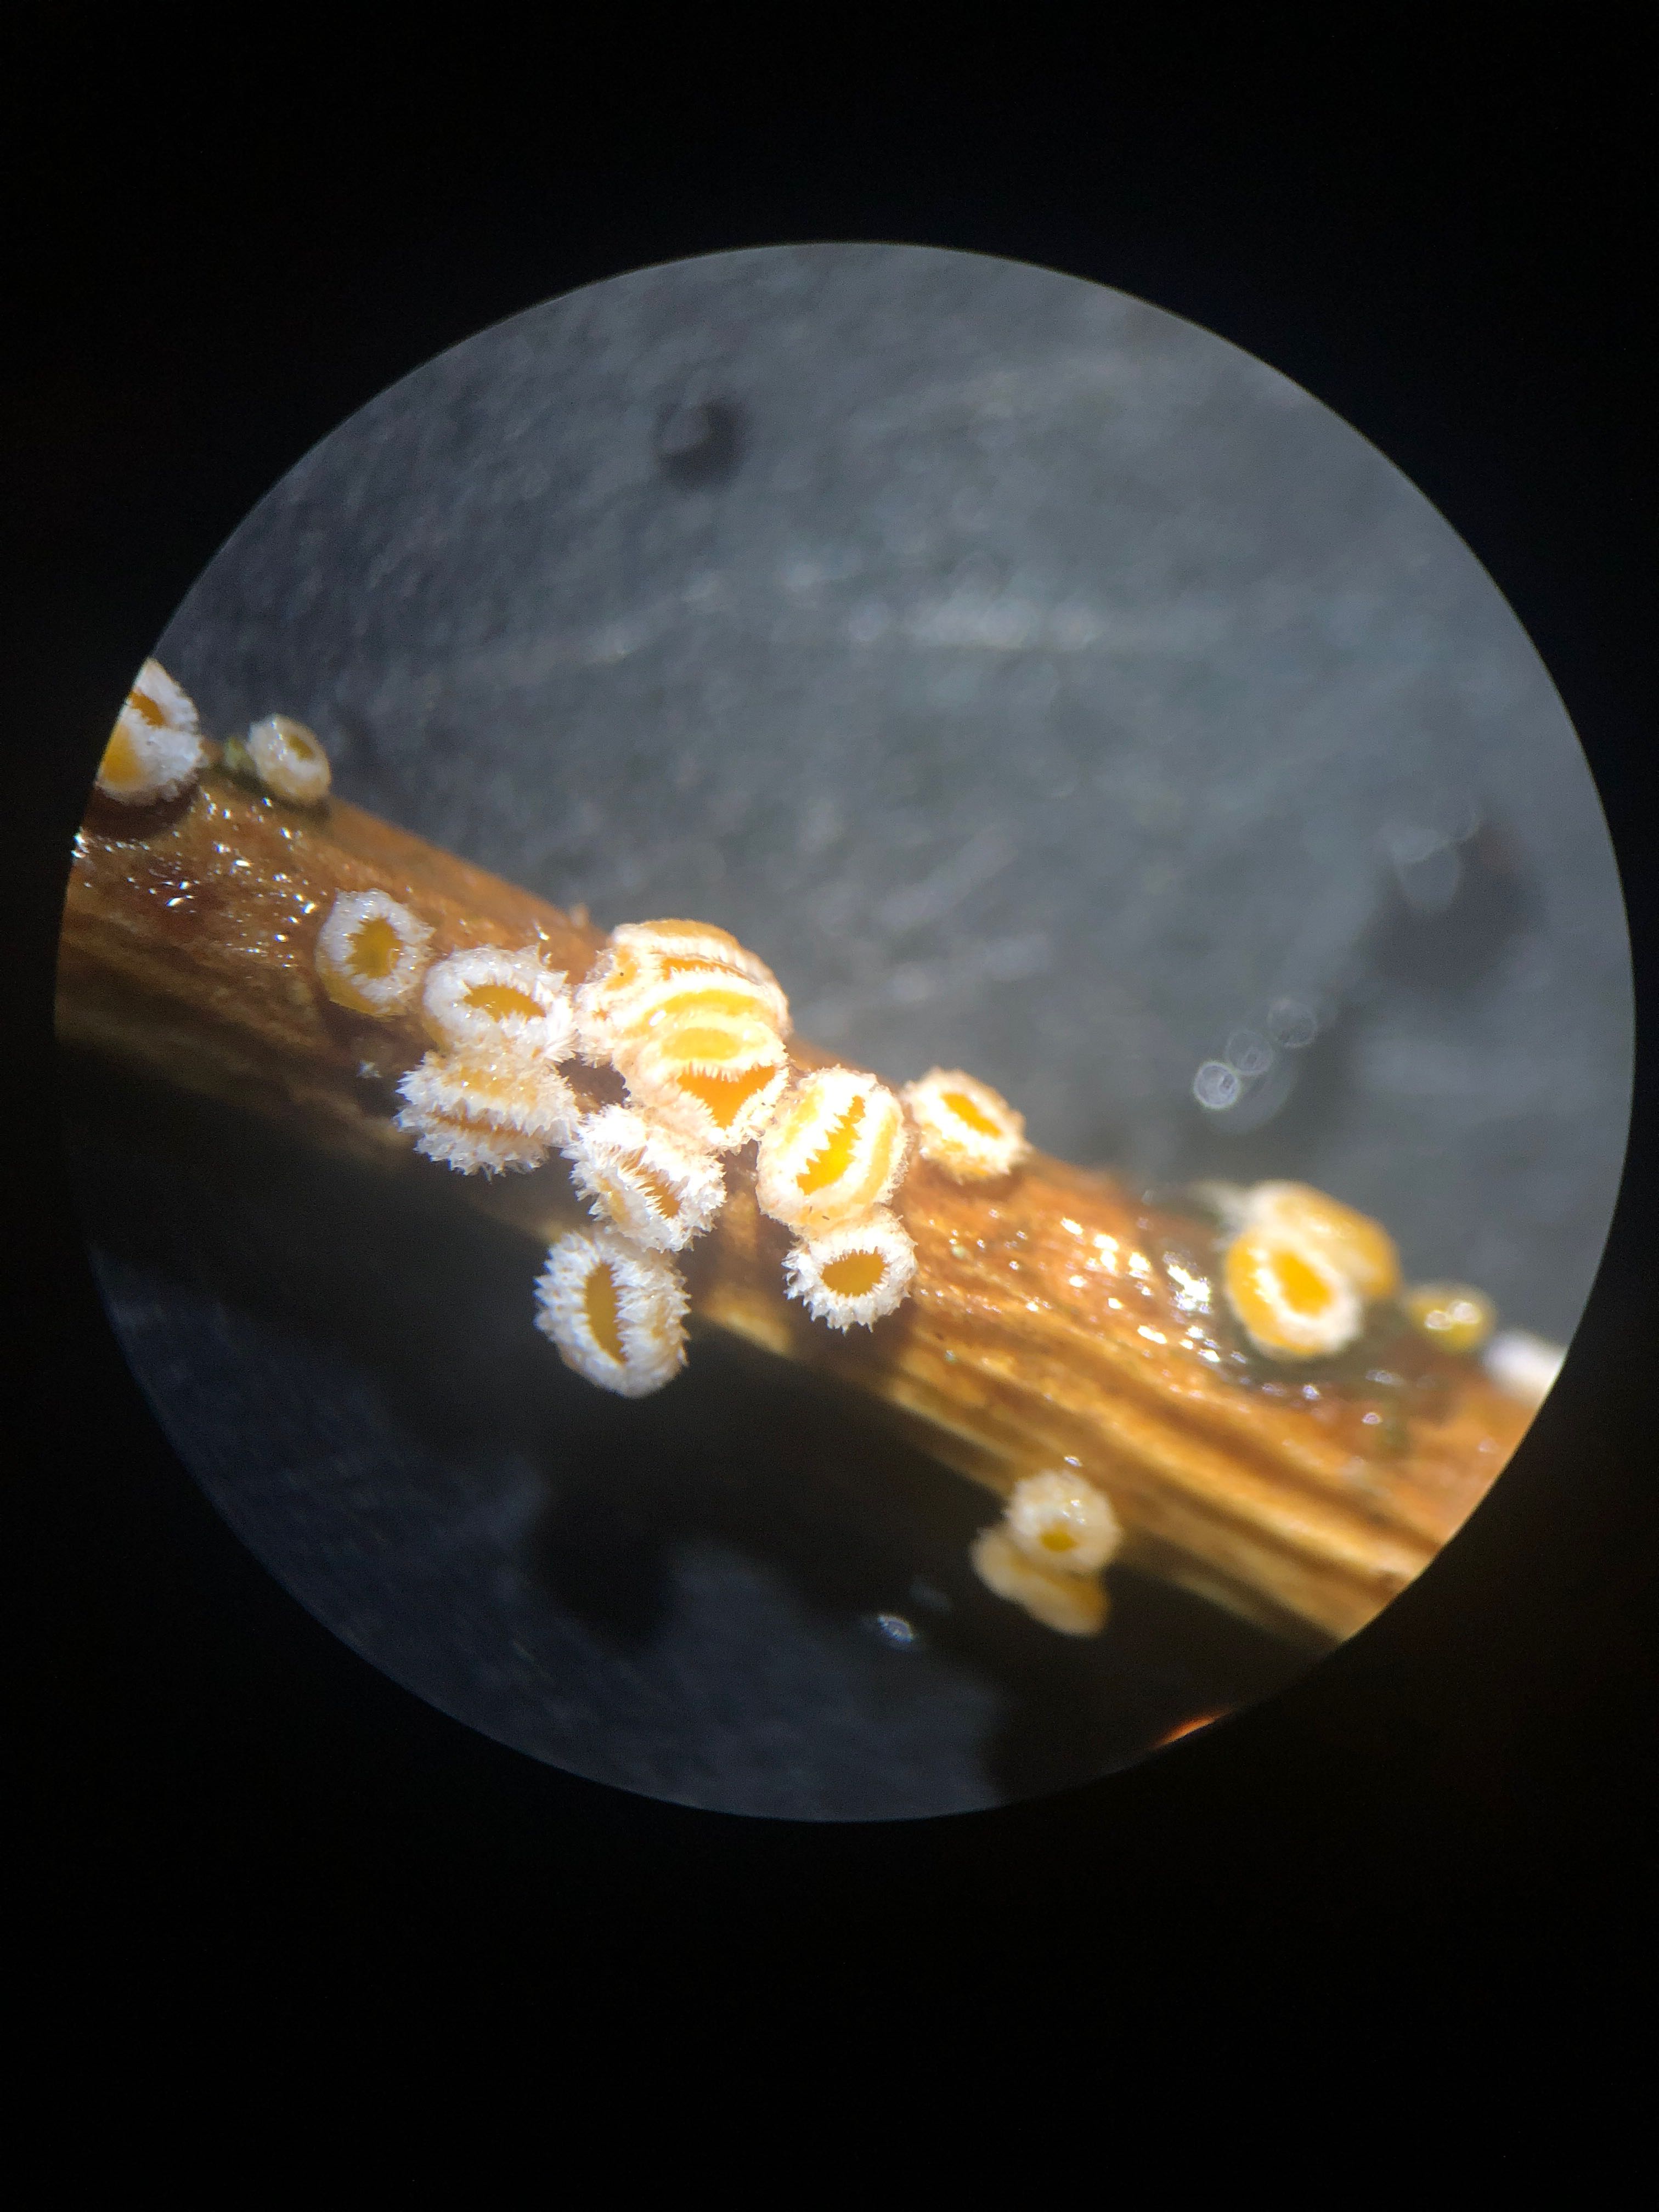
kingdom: Fungi
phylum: Ascomycota
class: Leotiomycetes
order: Helotiales
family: Lachnaceae
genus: Capitotricha
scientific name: Capitotricha bicolor
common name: prægtig frynseskive
